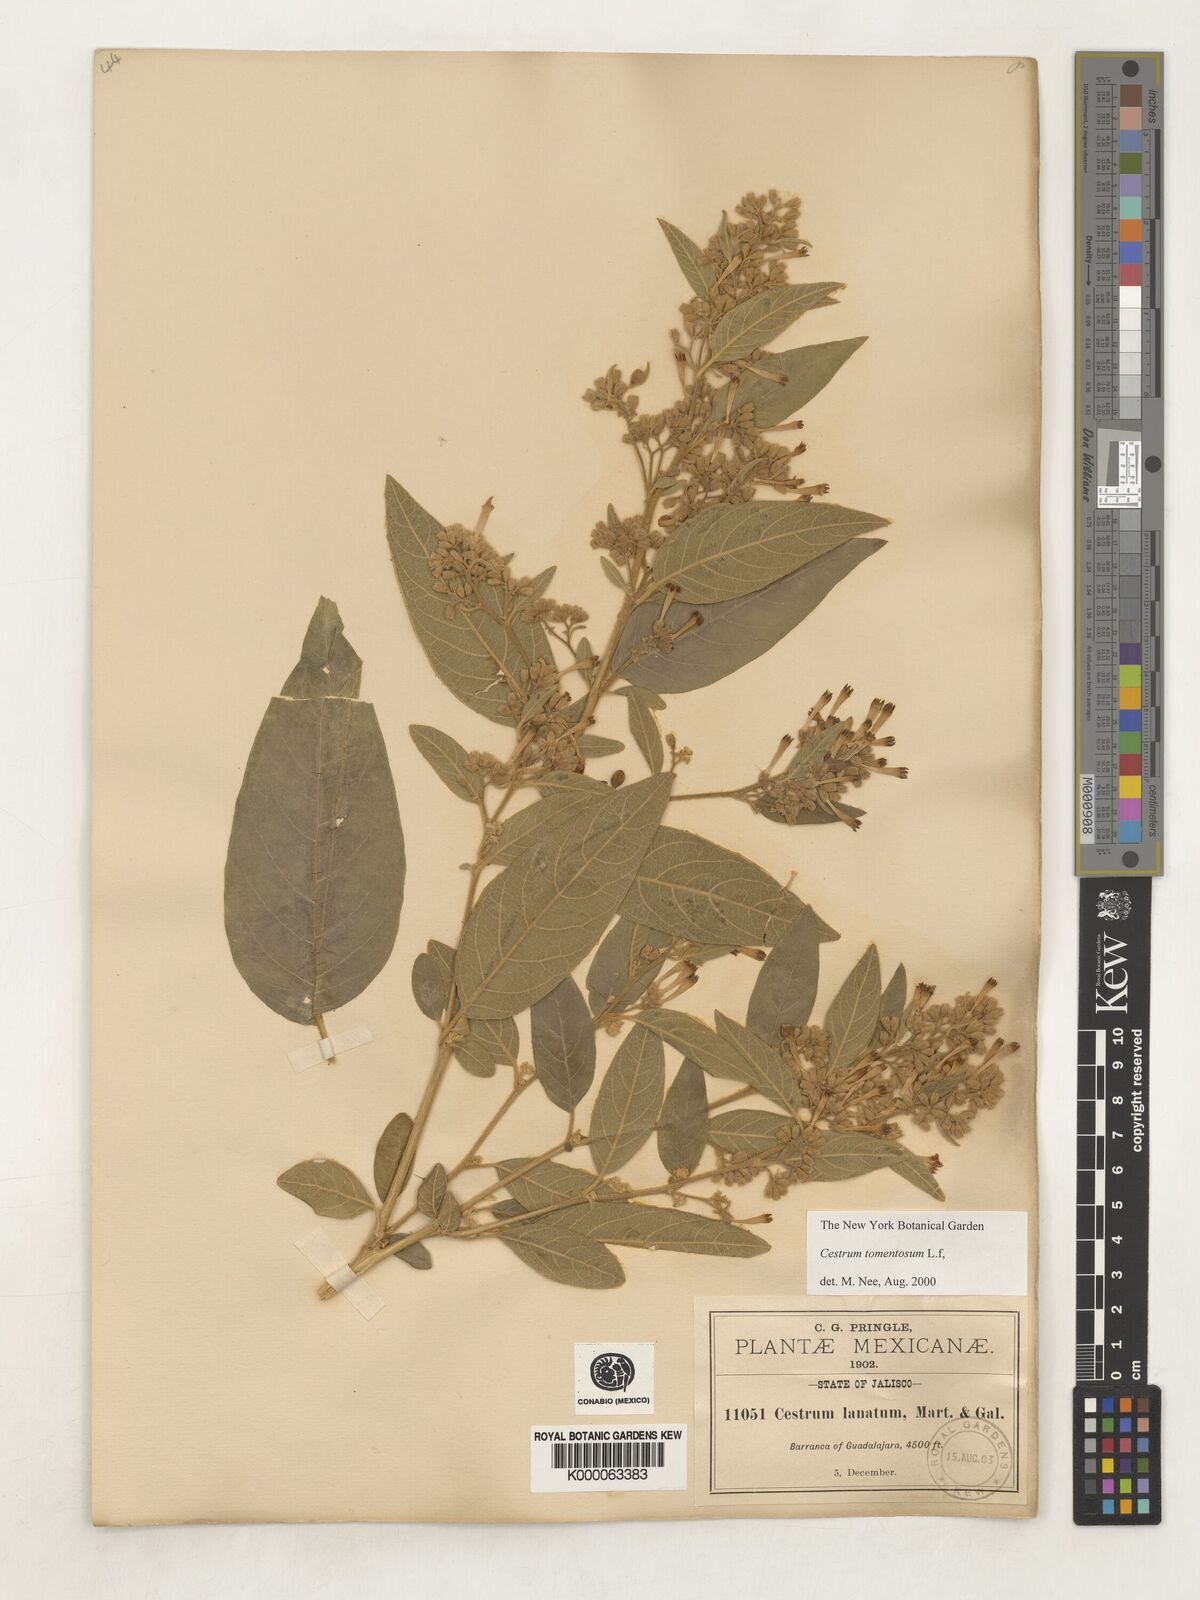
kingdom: Plantae
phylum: Tracheophyta
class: Magnoliopsida
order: Solanales
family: Solanaceae
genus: Cestrum
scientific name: Cestrum tomentosum
